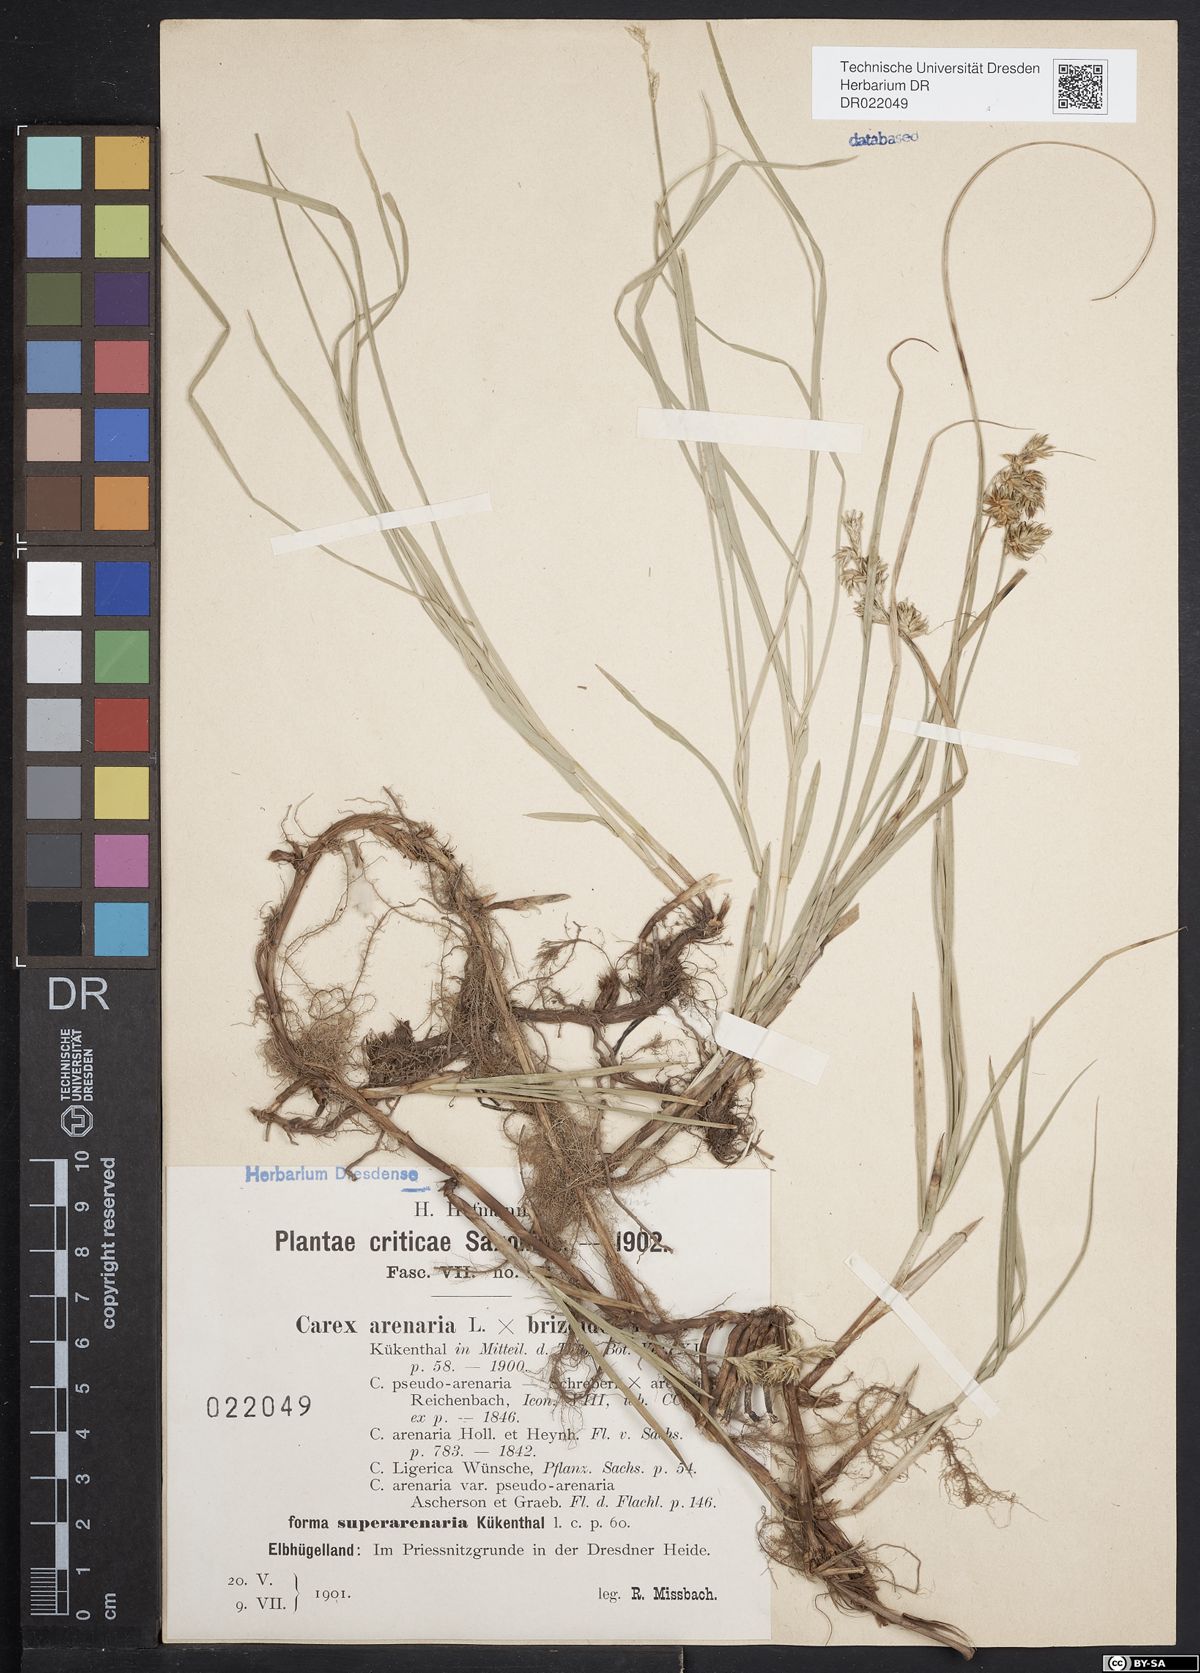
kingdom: Plantae
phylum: Tracheophyta
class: Liliopsida
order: Poales
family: Cyperaceae
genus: Carex
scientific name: Carex pseudobrizoides
